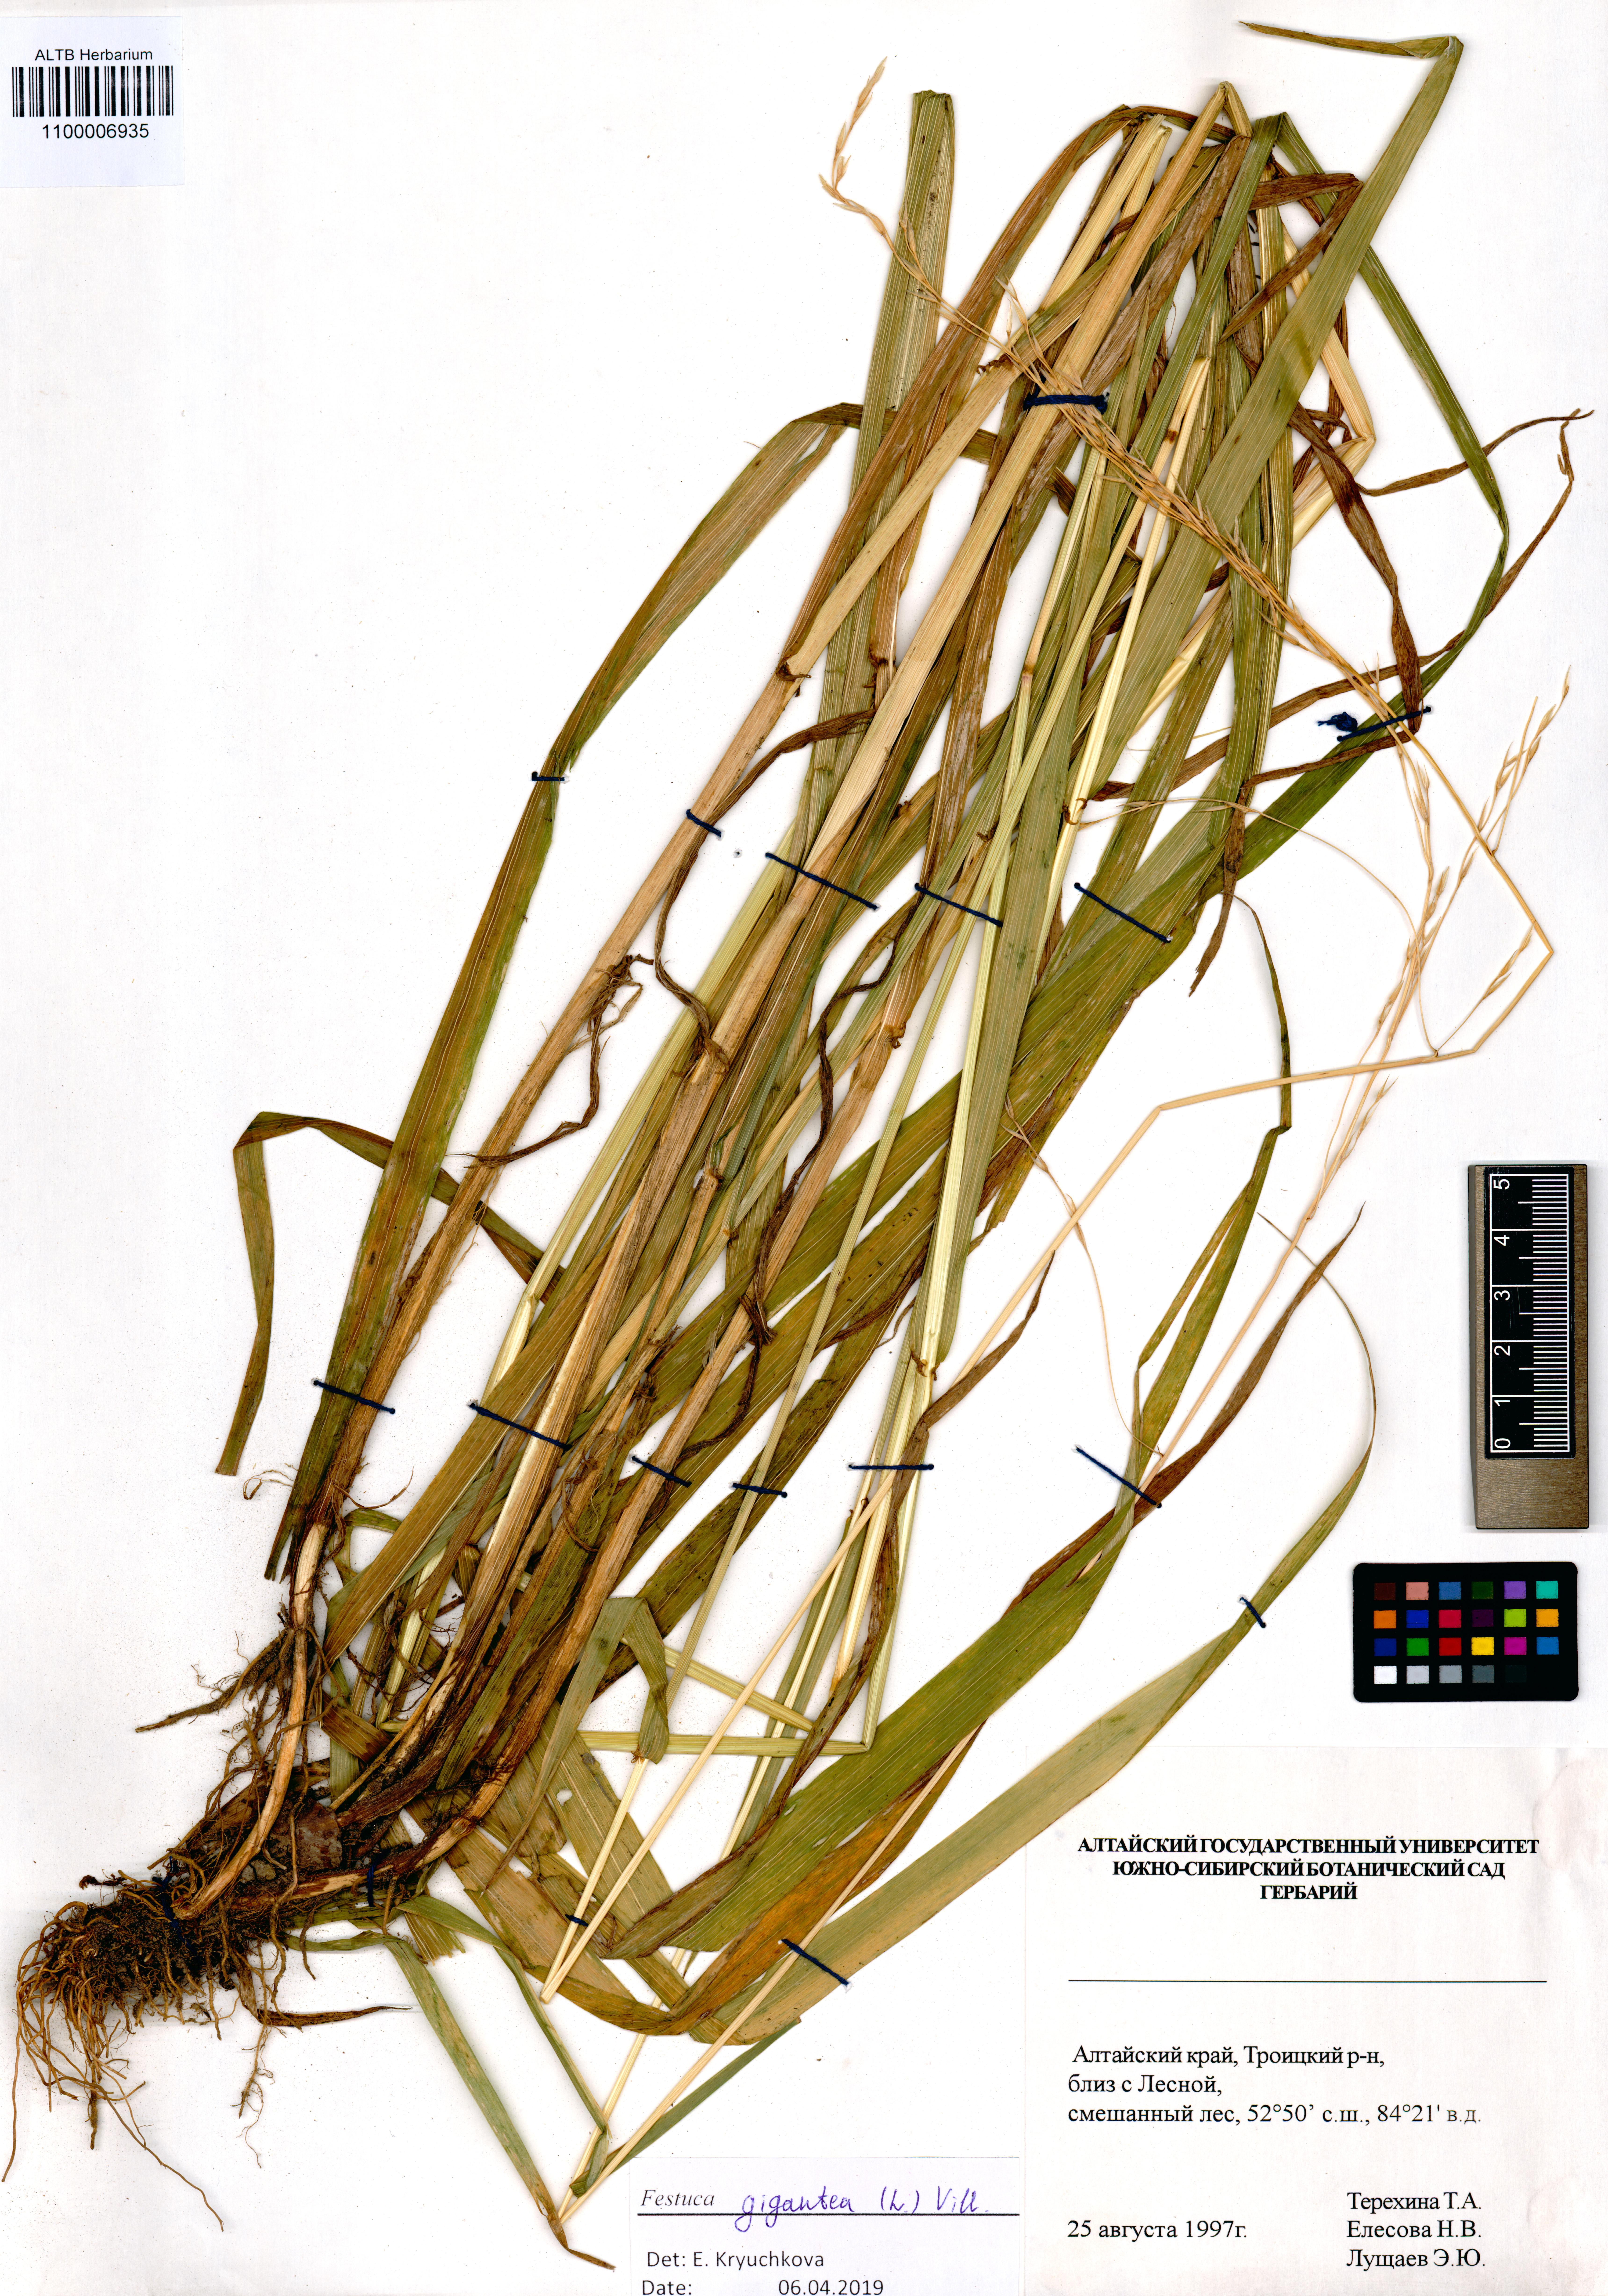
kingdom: Plantae
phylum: Tracheophyta
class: Liliopsida
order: Poales
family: Poaceae
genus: Lolium
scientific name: Lolium giganteum
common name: Giant fescue
